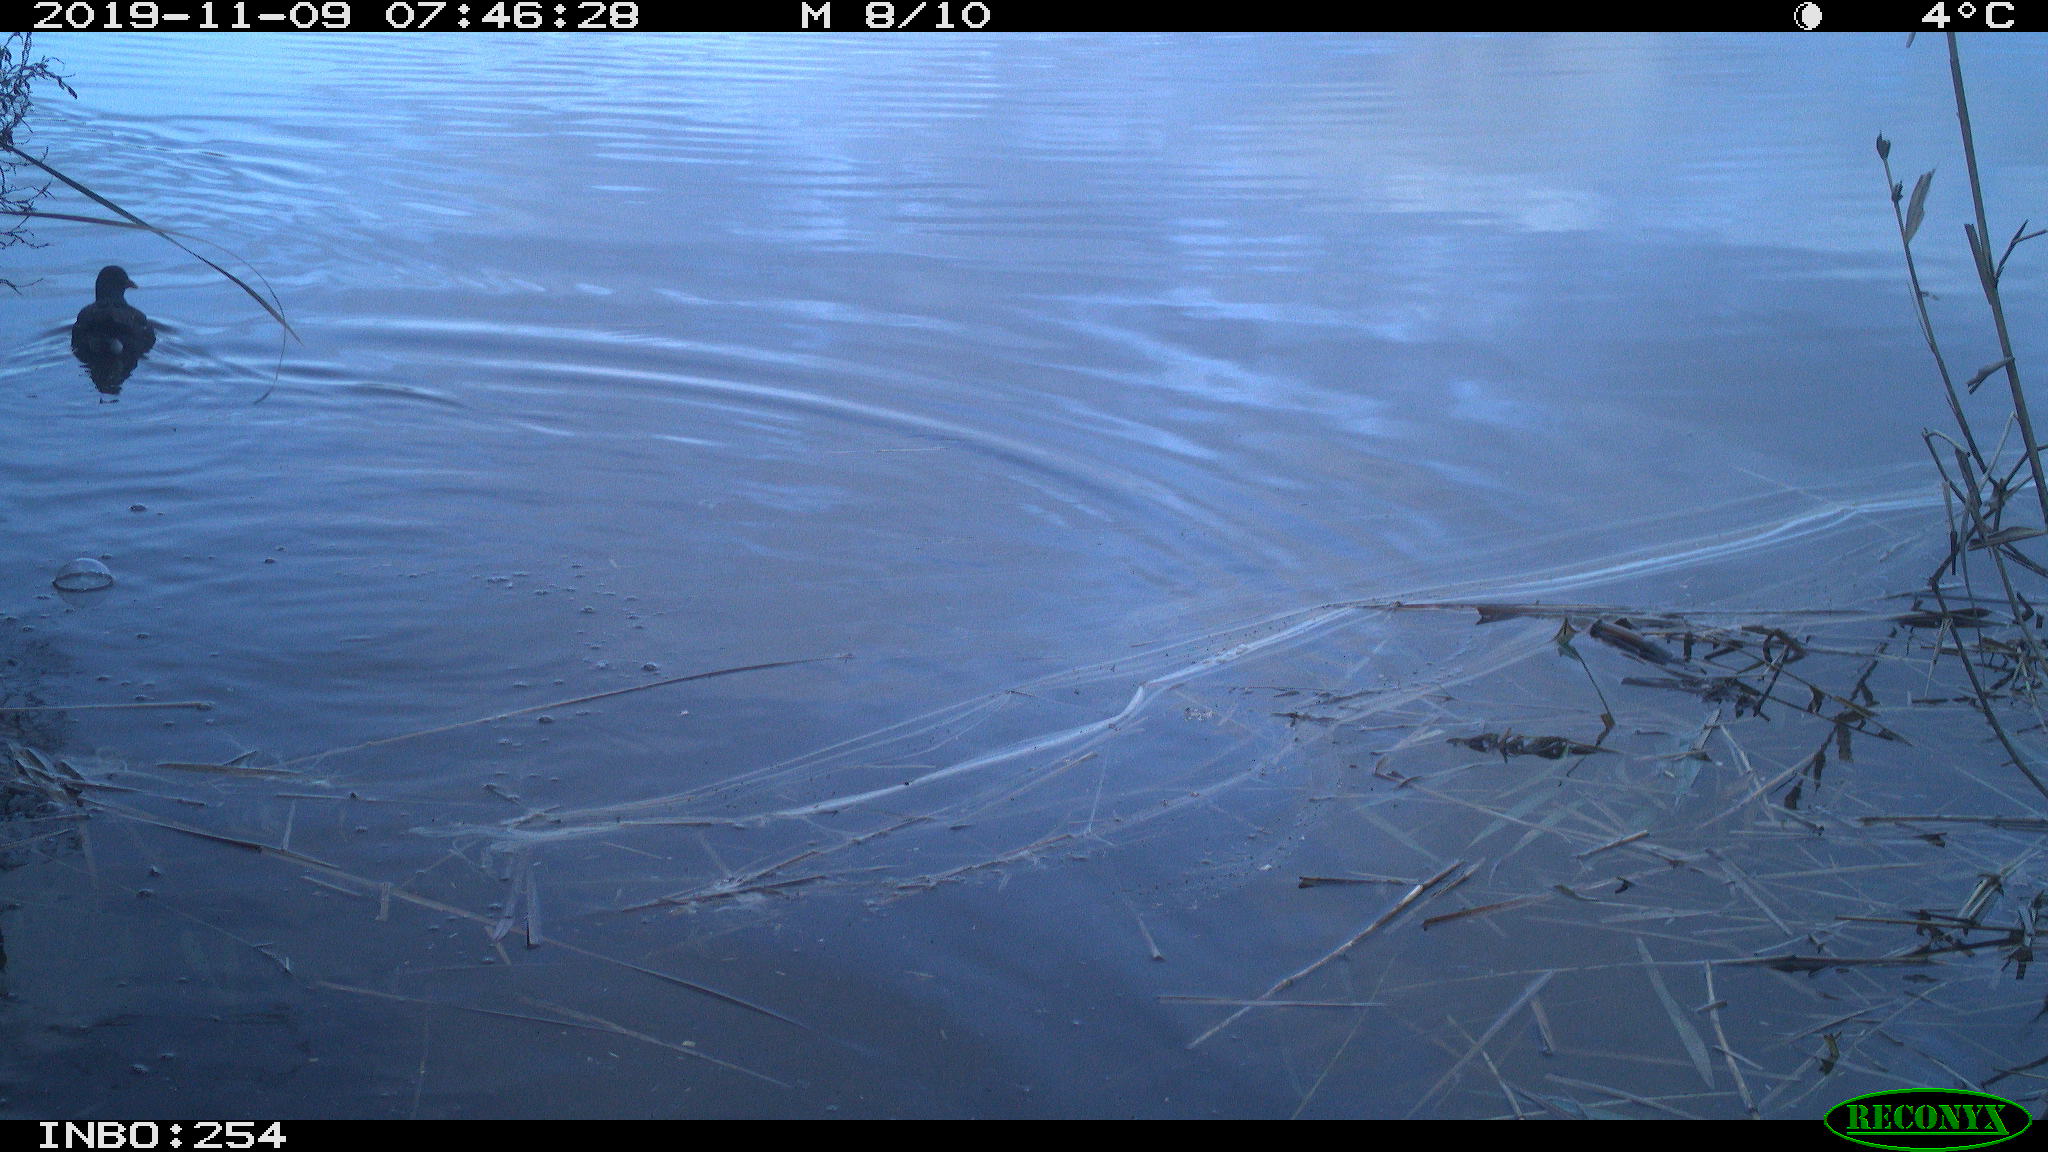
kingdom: Animalia
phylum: Chordata
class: Aves
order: Gruiformes
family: Rallidae
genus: Gallinula
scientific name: Gallinula chloropus
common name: Common moorhen
